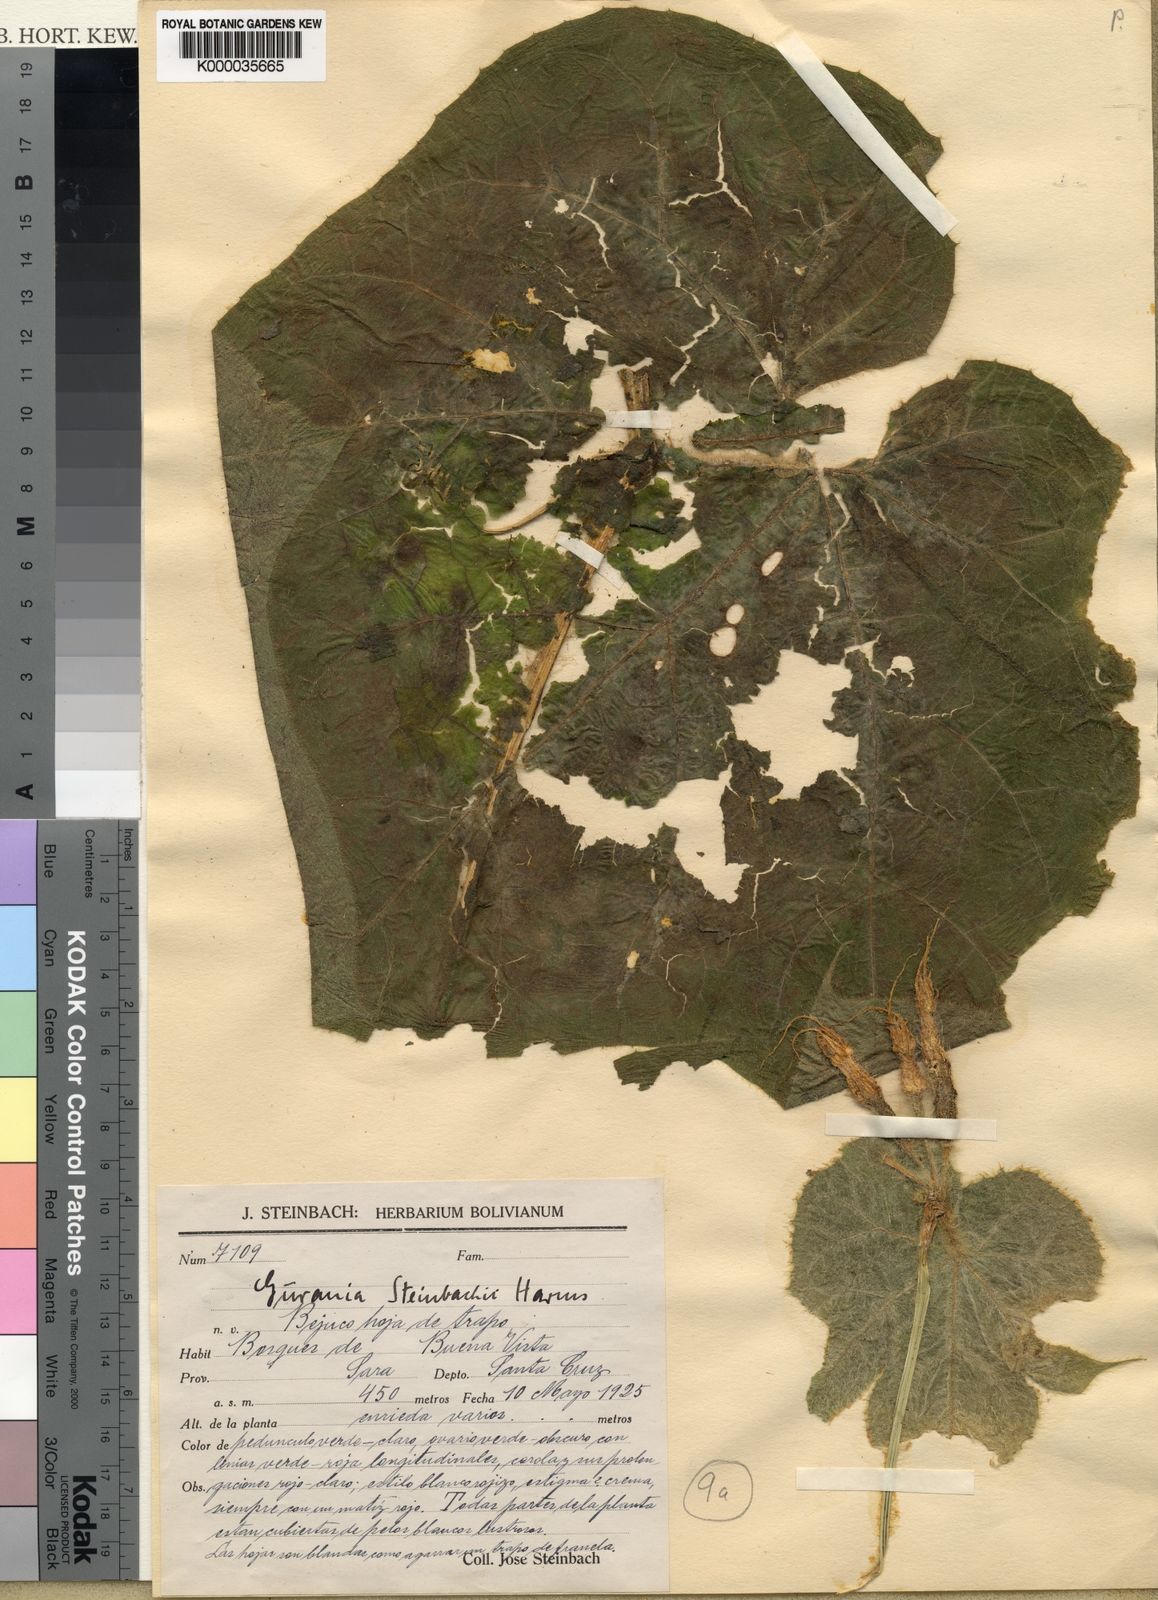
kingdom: Plantae
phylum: Tracheophyta
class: Magnoliopsida
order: Cucurbitales
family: Cucurbitaceae
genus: Gurania
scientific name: Gurania eriantha
